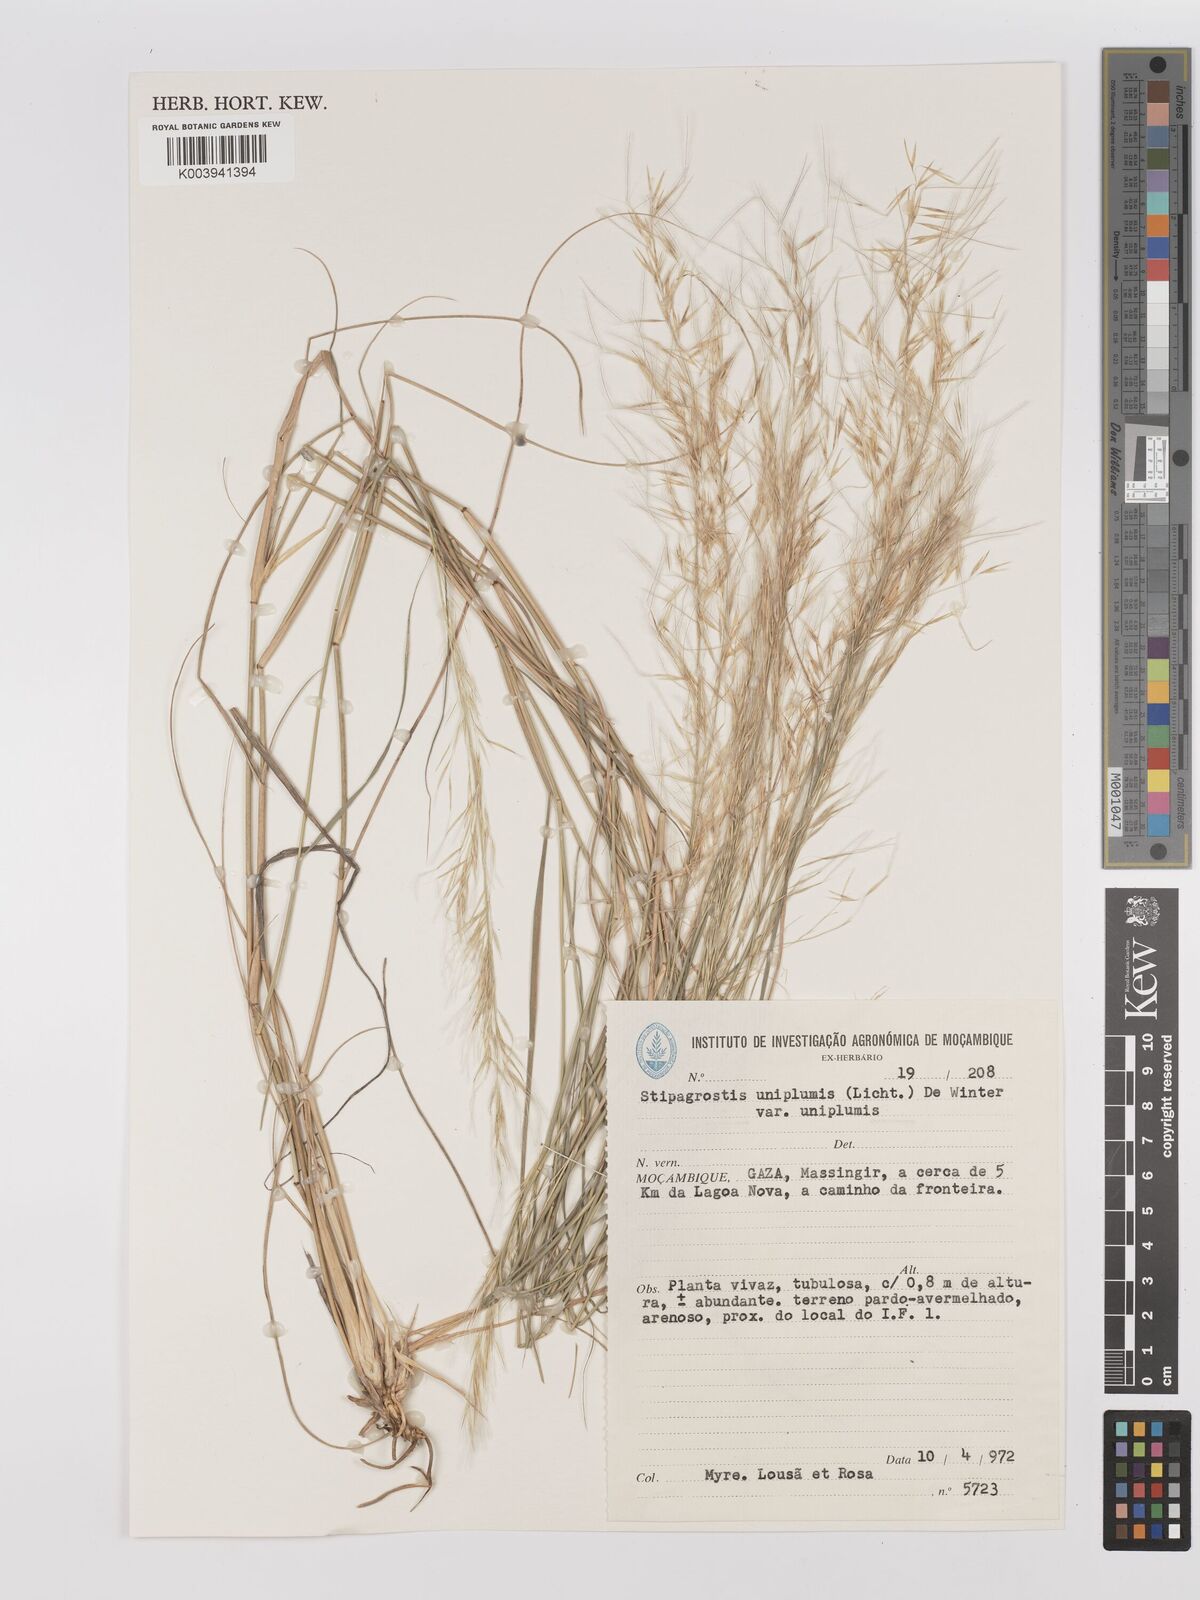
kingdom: Plantae
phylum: Tracheophyta
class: Liliopsida
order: Poales
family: Poaceae
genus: Stipagrostis
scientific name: Stipagrostis uniplumis
